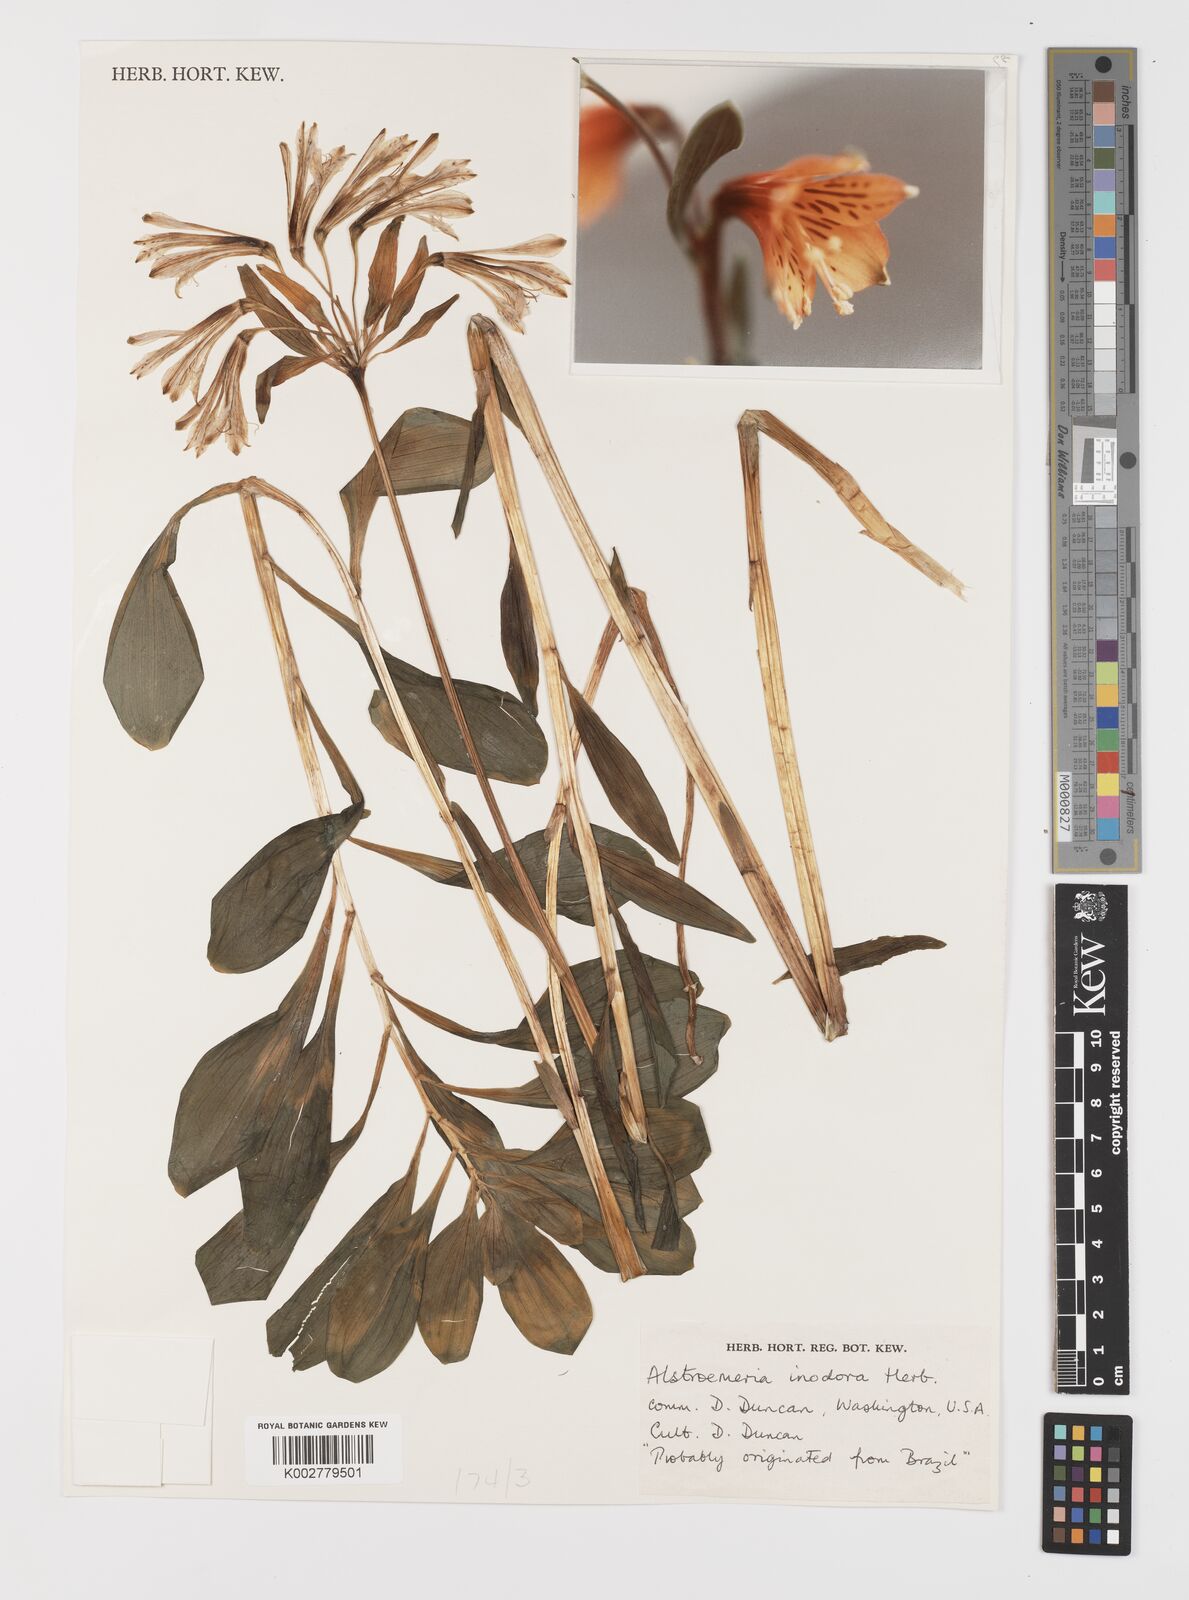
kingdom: Plantae
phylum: Tracheophyta
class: Liliopsida
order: Liliales
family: Alstroemeriaceae
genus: Alstroemeria
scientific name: Alstroemeria inodora
